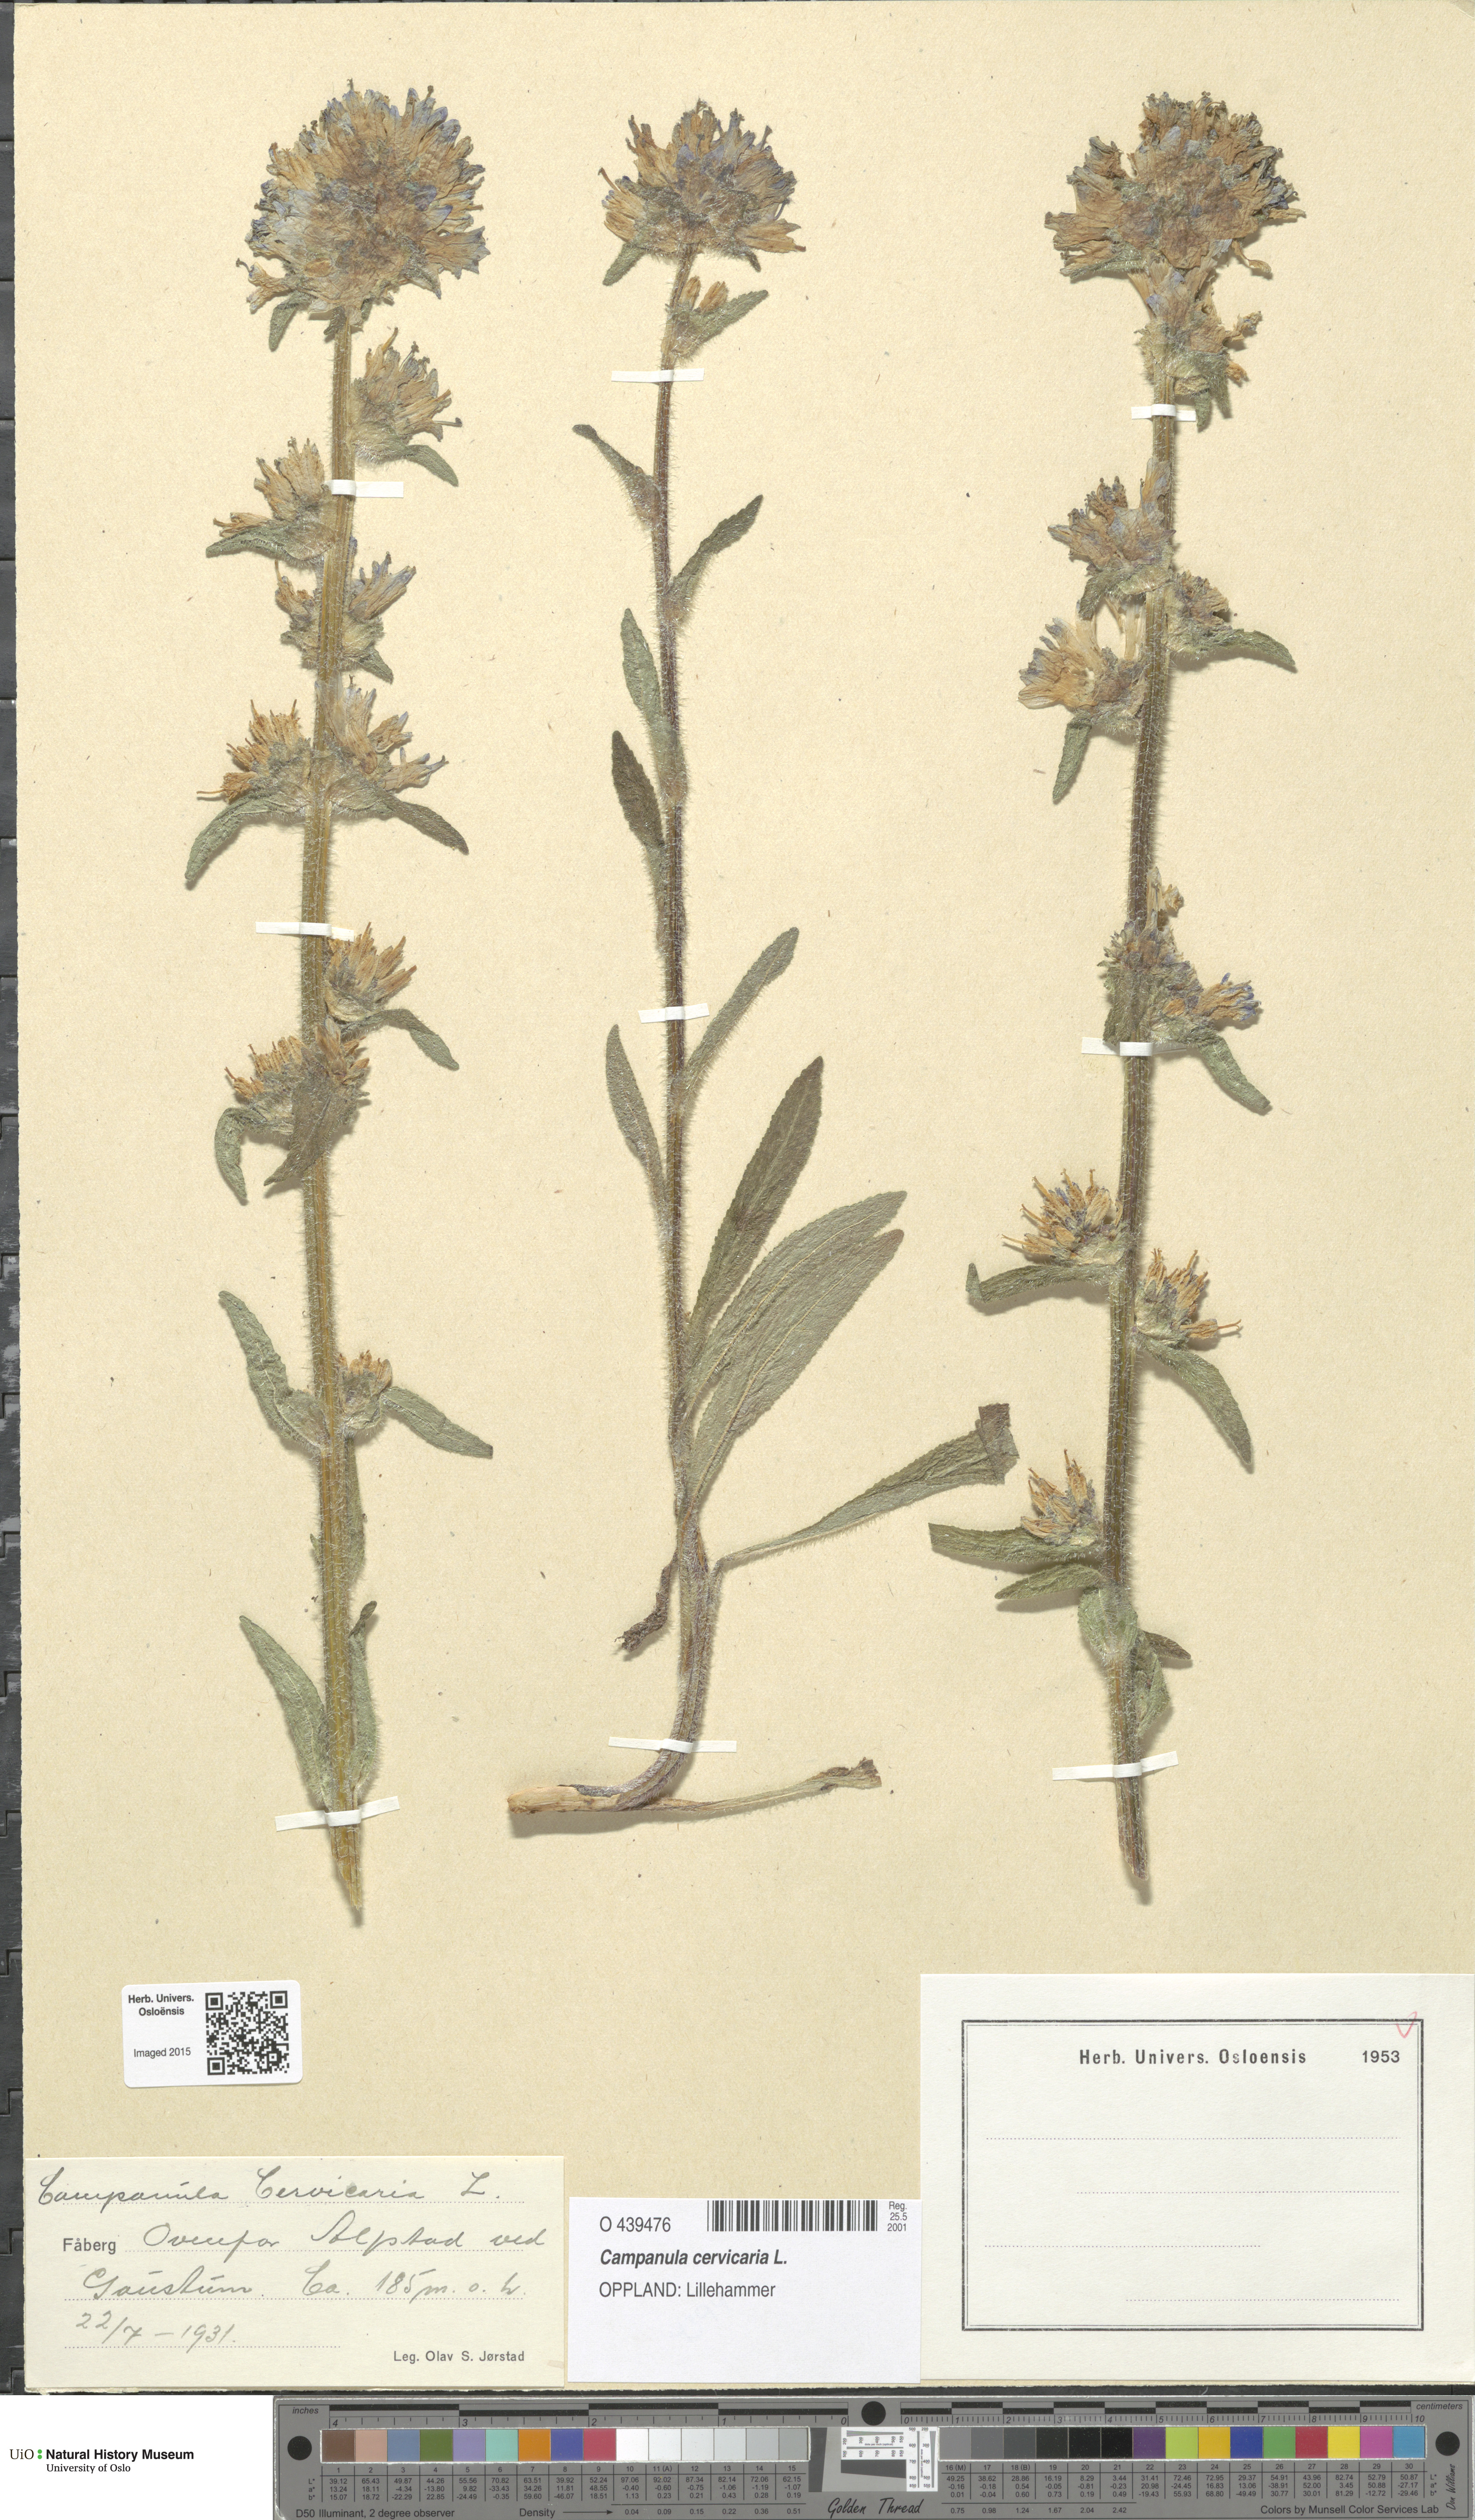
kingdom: Plantae
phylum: Tracheophyta
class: Magnoliopsida
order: Asterales
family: Campanulaceae
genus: Campanula
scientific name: Campanula cervicaria
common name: Bristly bellflower
